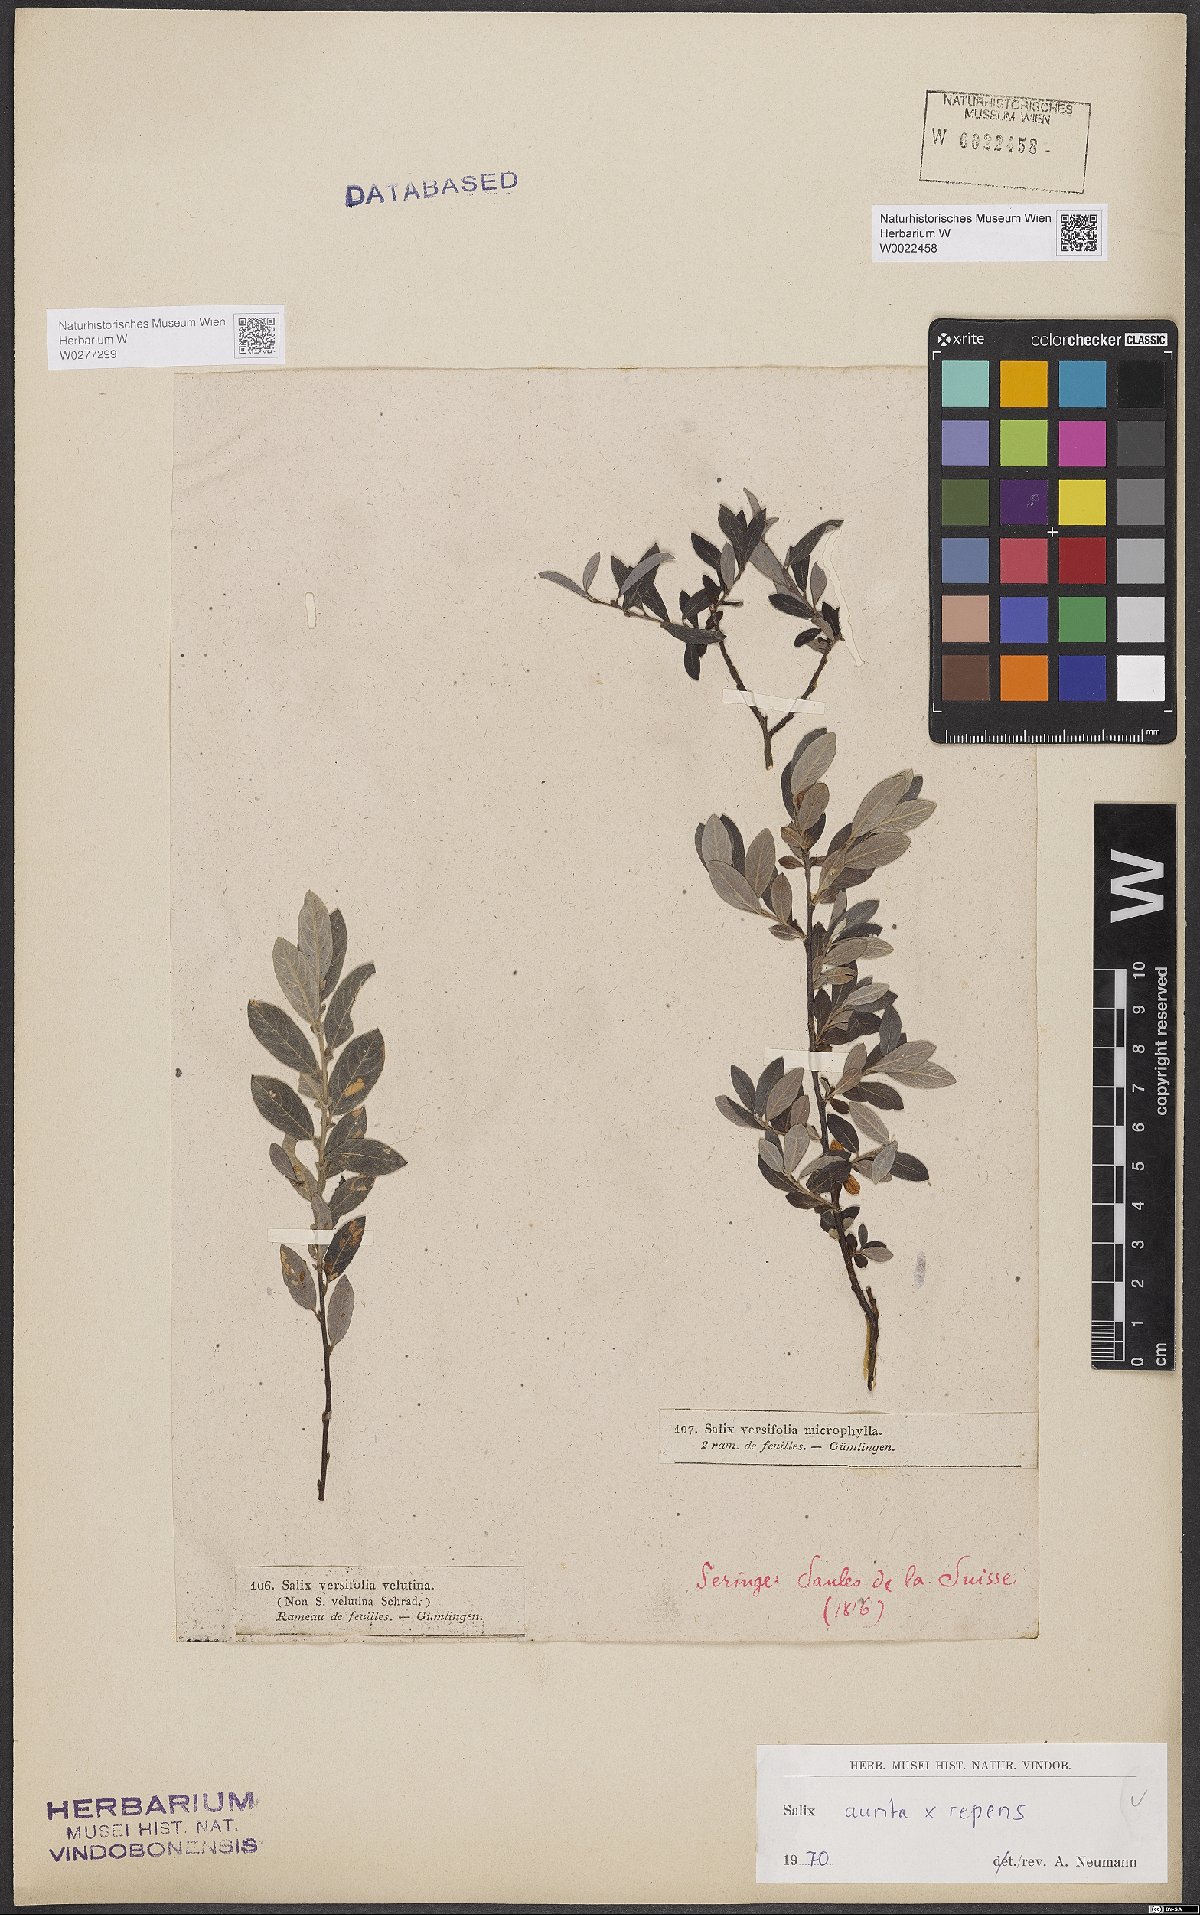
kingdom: Plantae
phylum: Tracheophyta
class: Magnoliopsida
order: Malpighiales
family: Salicaceae
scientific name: Salicaceae
